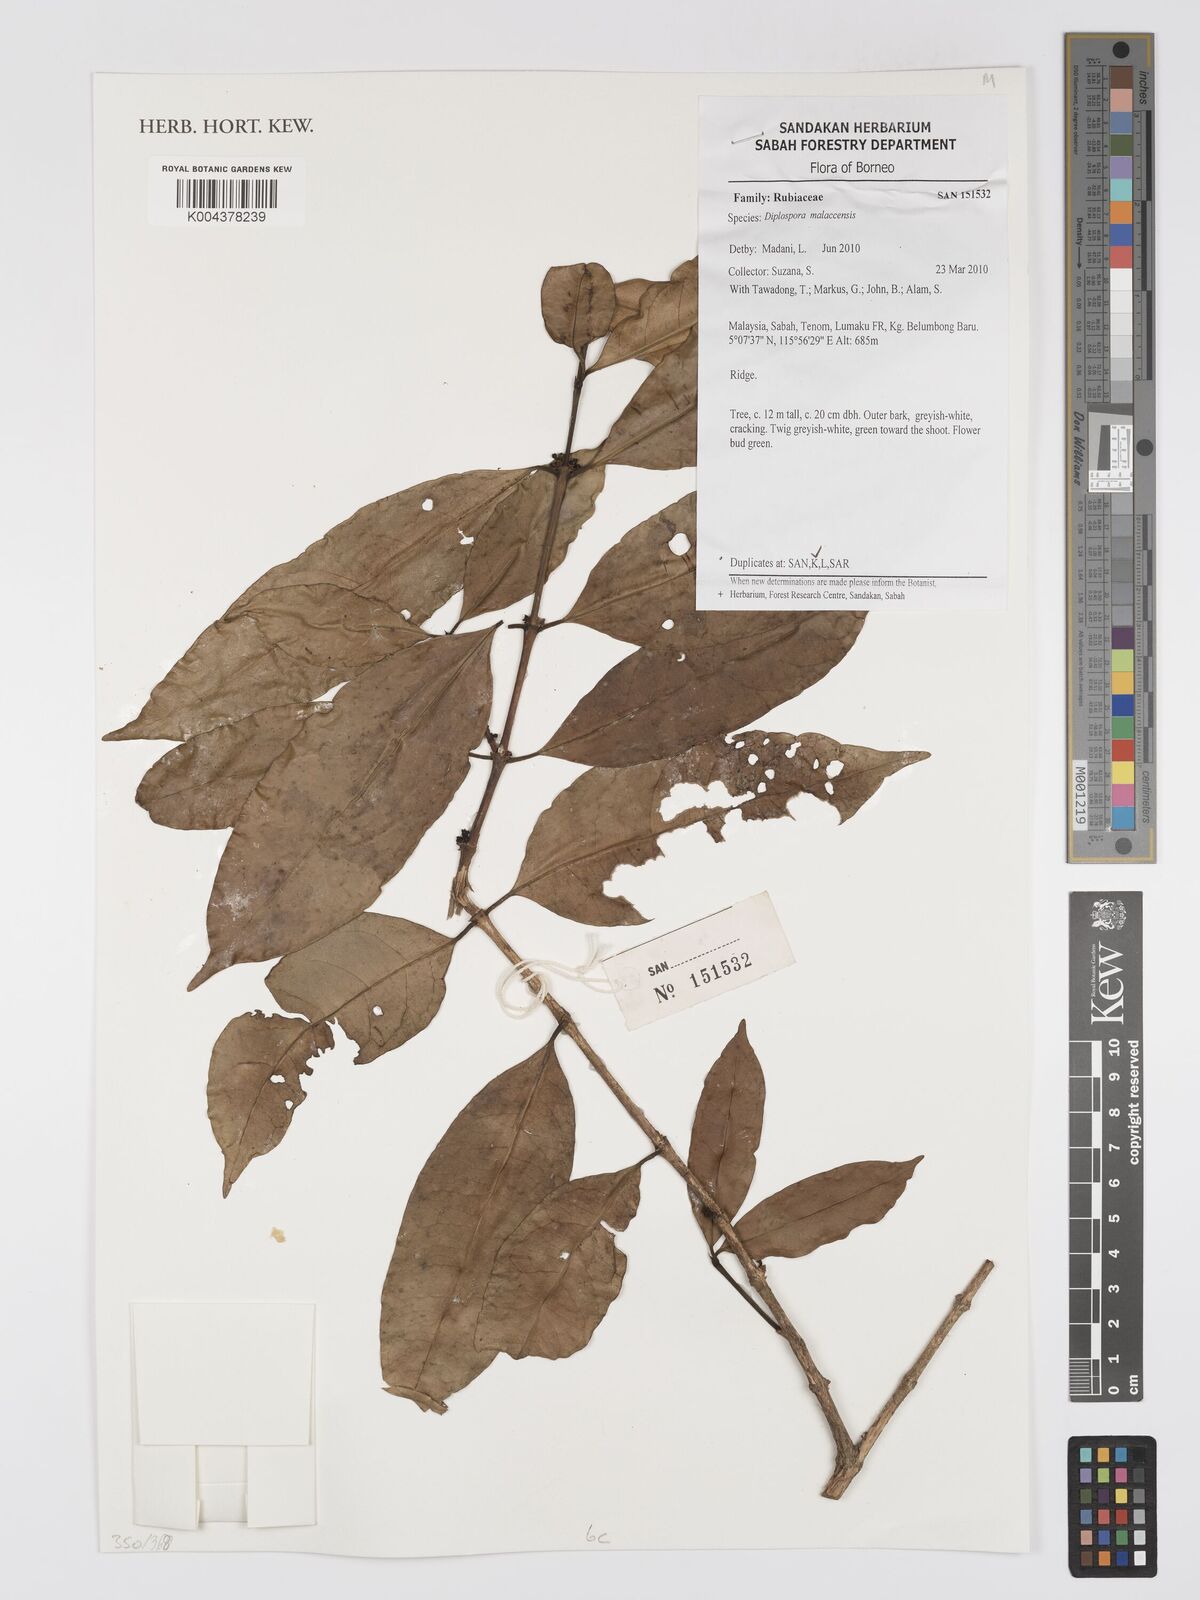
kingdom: Plantae
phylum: Tracheophyta
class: Magnoliopsida
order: Gentianales
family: Rubiaceae
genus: Discospermum
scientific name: Discospermum malaccense
